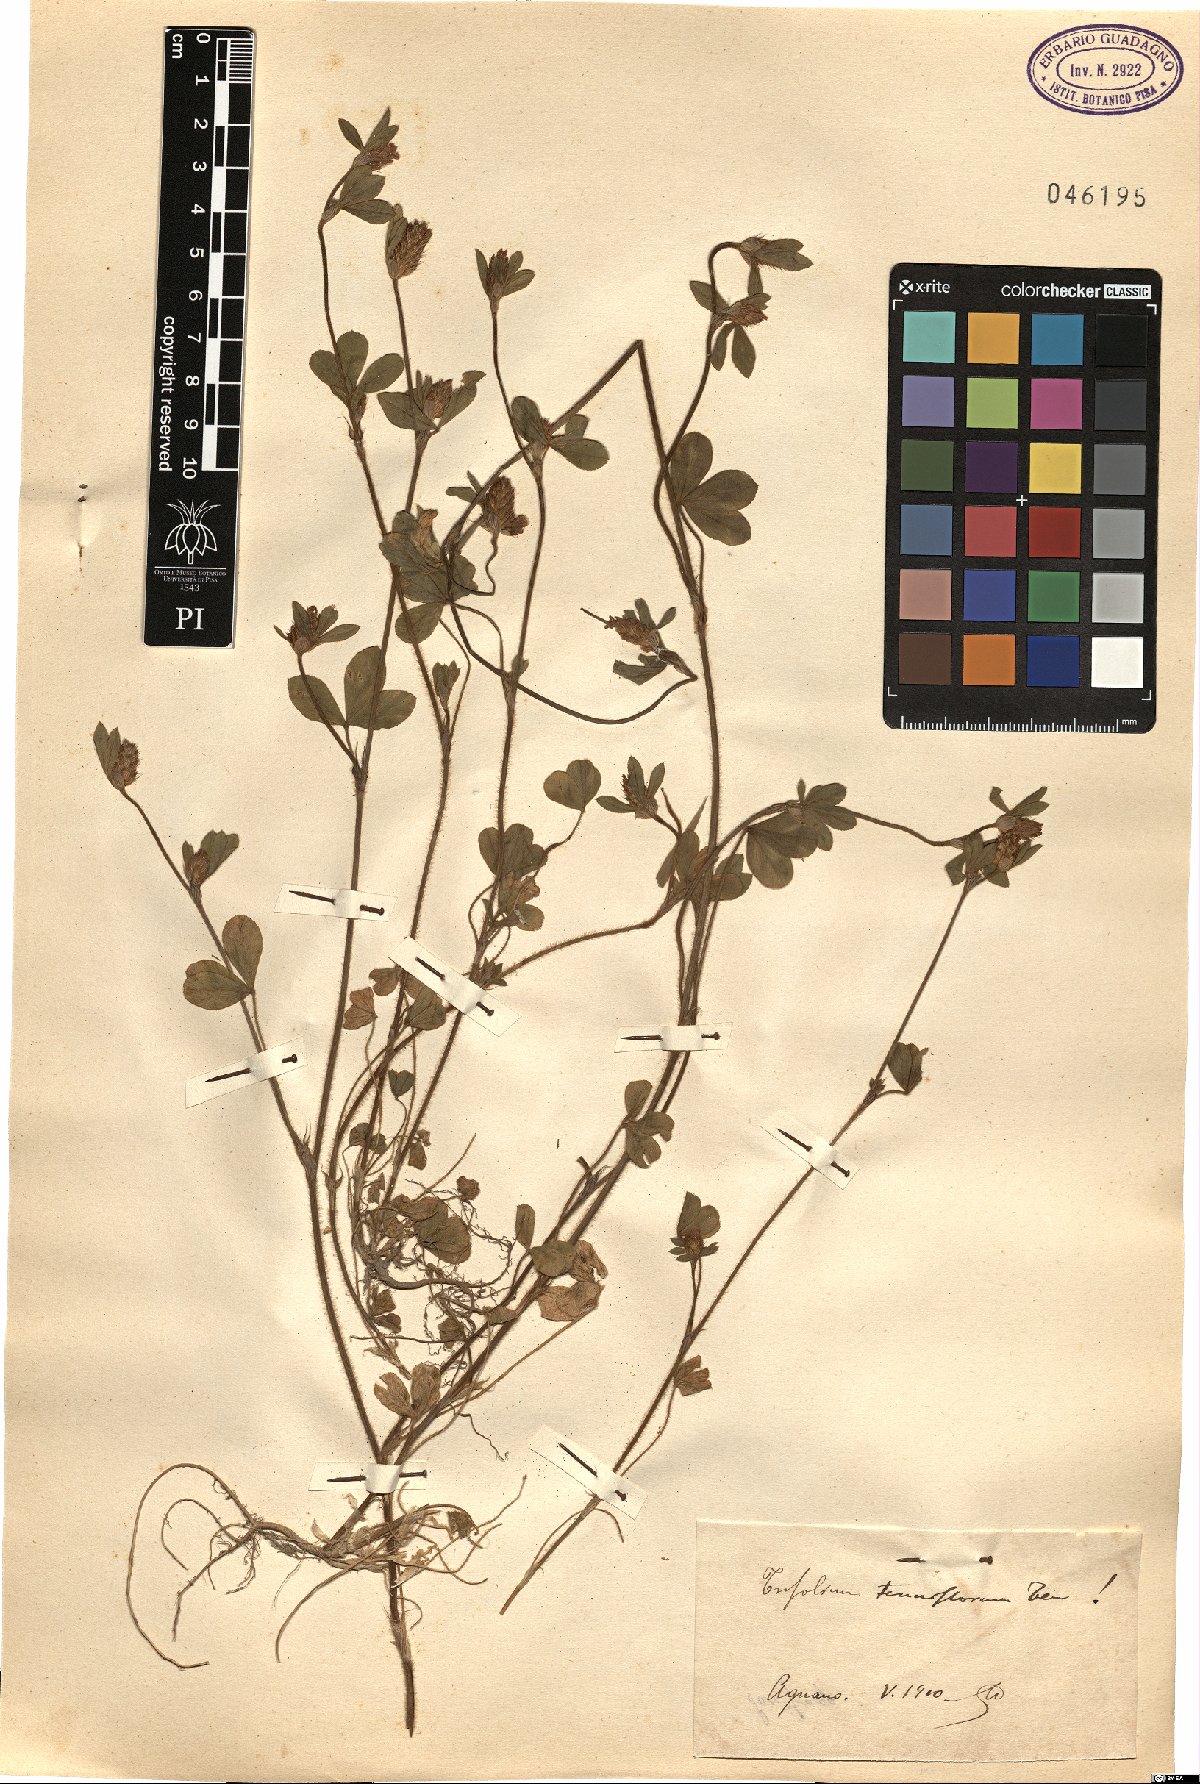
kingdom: Plantae
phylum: Tracheophyta
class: Magnoliopsida
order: Fabales
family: Fabaceae
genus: Trifolium
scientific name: Trifolium striatum
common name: Knotted clover
